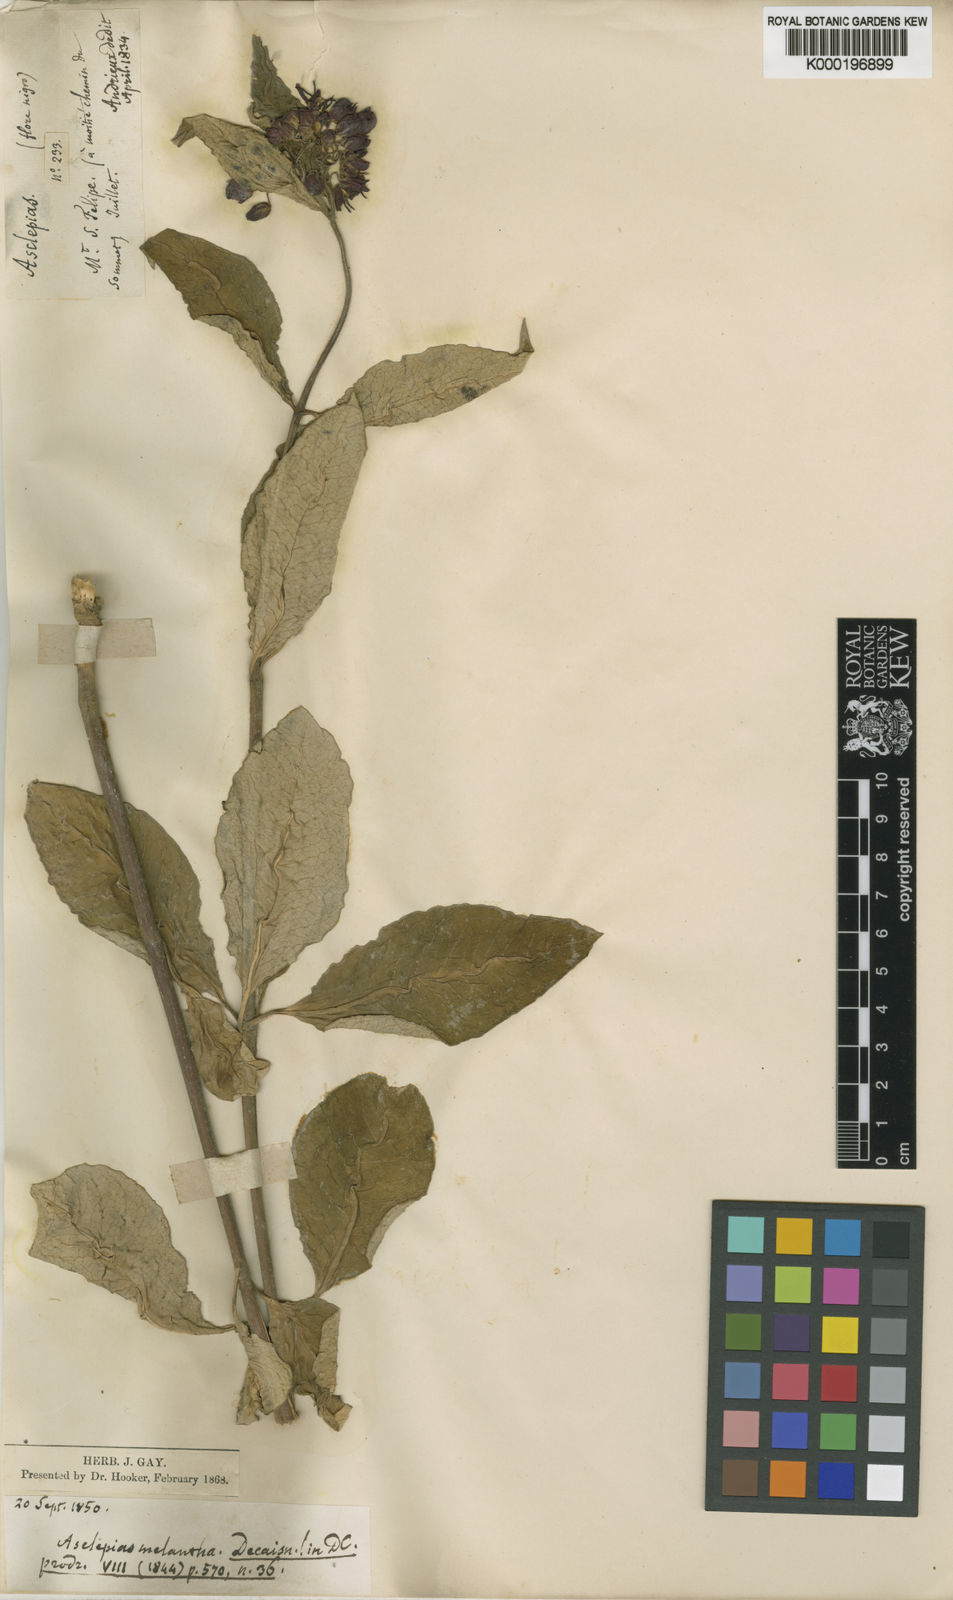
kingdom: Plantae
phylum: Tracheophyta
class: Magnoliopsida
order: Gentianales
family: Apocynaceae
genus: Asclepias
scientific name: Asclepias perennis
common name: Smooth-seed milkweed
